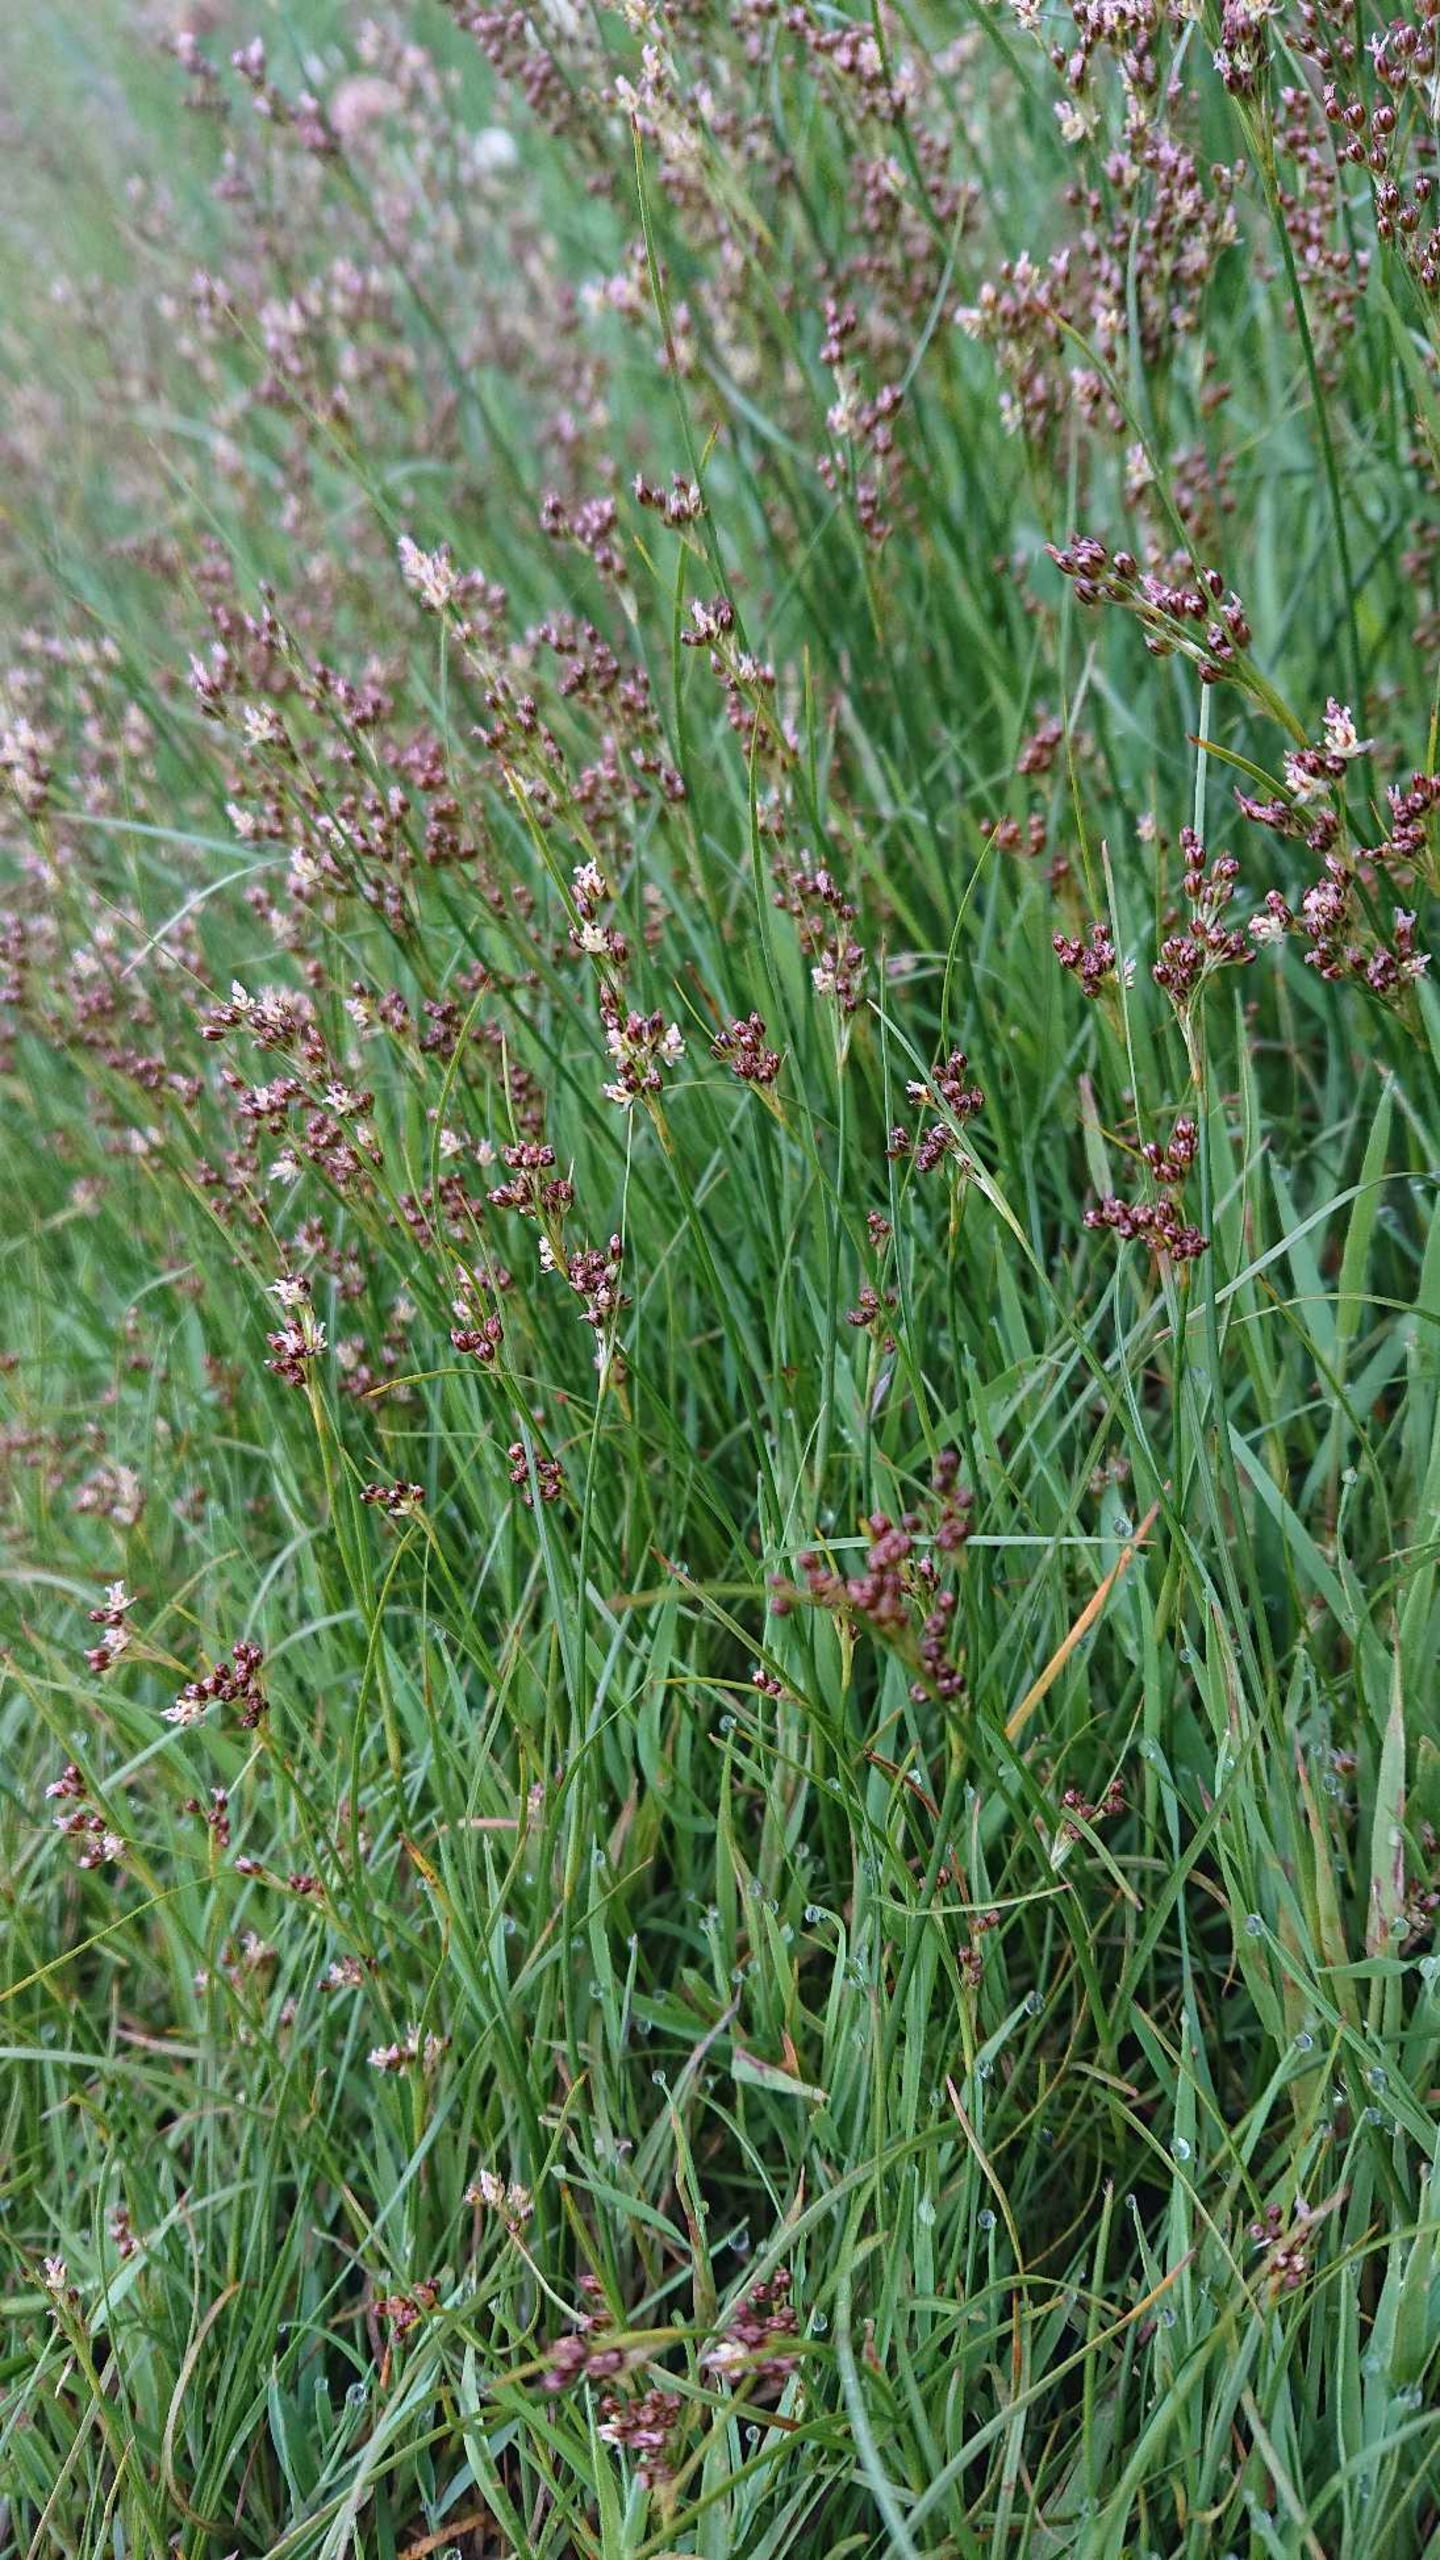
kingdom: Plantae
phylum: Tracheophyta
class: Liliopsida
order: Poales
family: Juncaceae
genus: Juncus
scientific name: Juncus gerardi
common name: Harril
